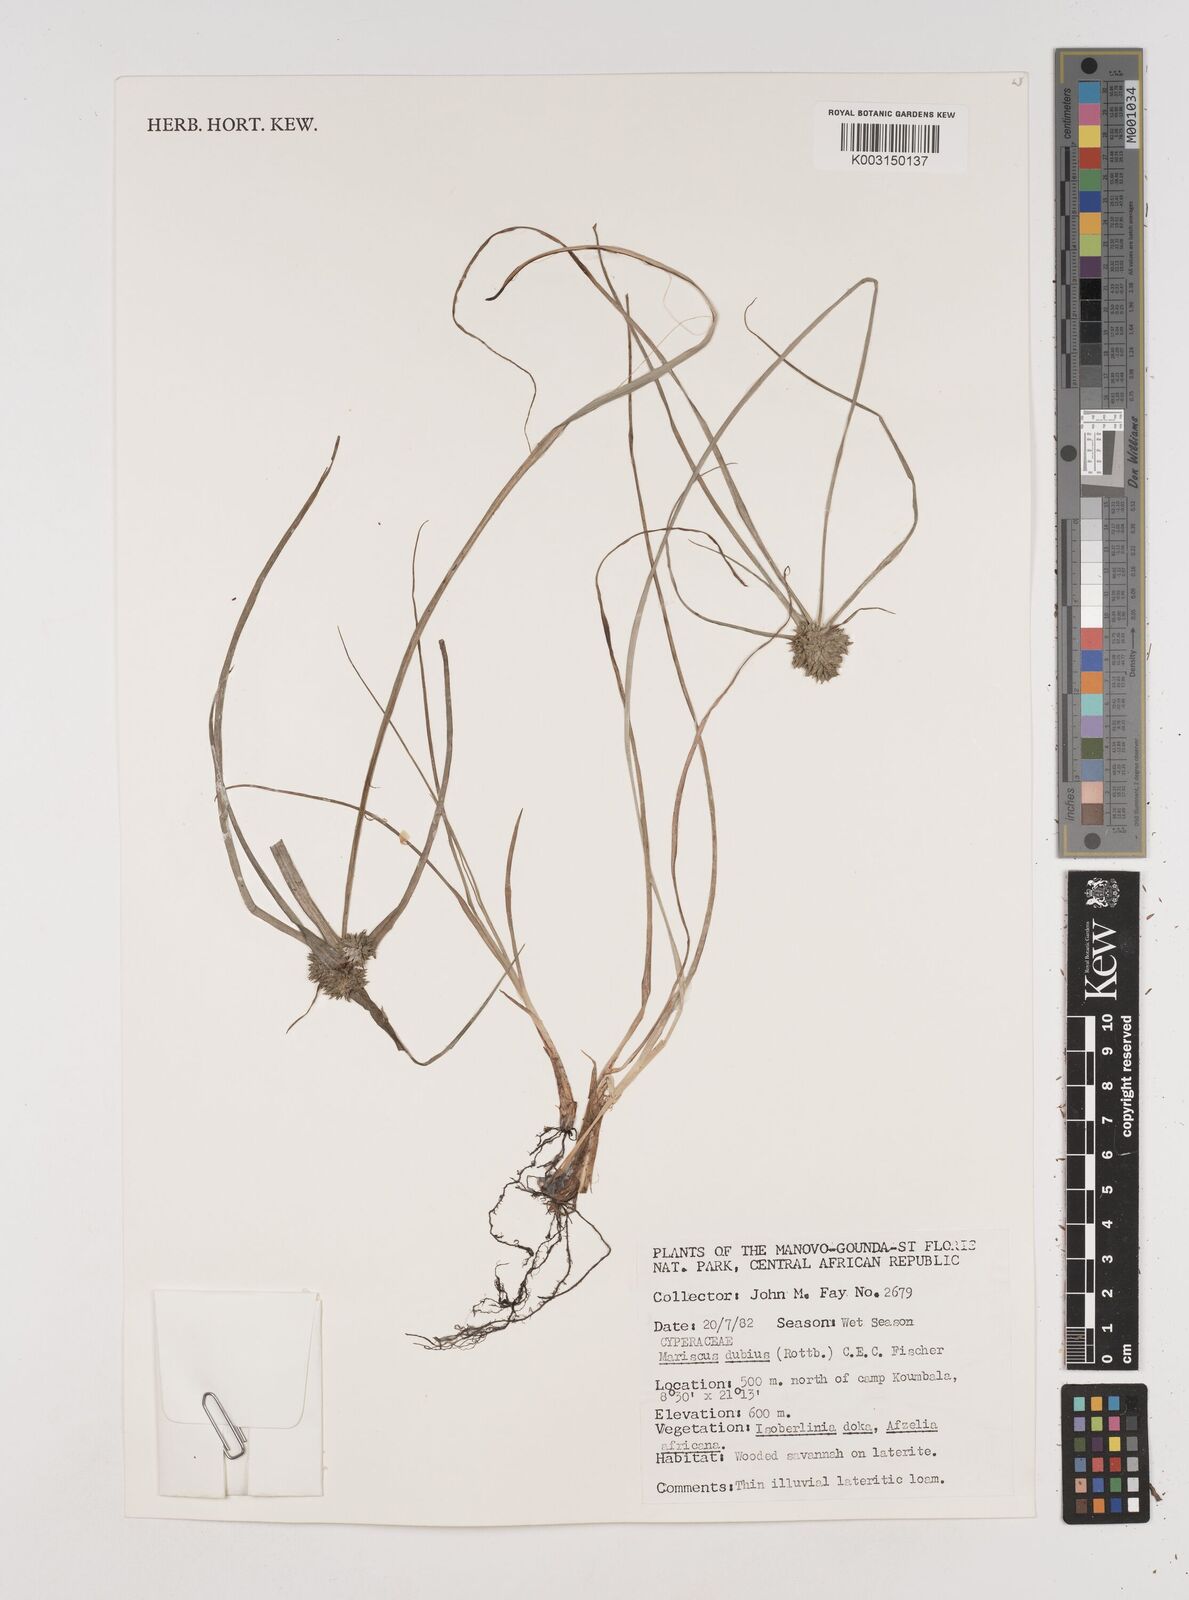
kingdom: Plantae
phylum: Tracheophyta
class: Liliopsida
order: Poales
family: Cyperaceae
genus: Cyperus
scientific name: Cyperus dubius
